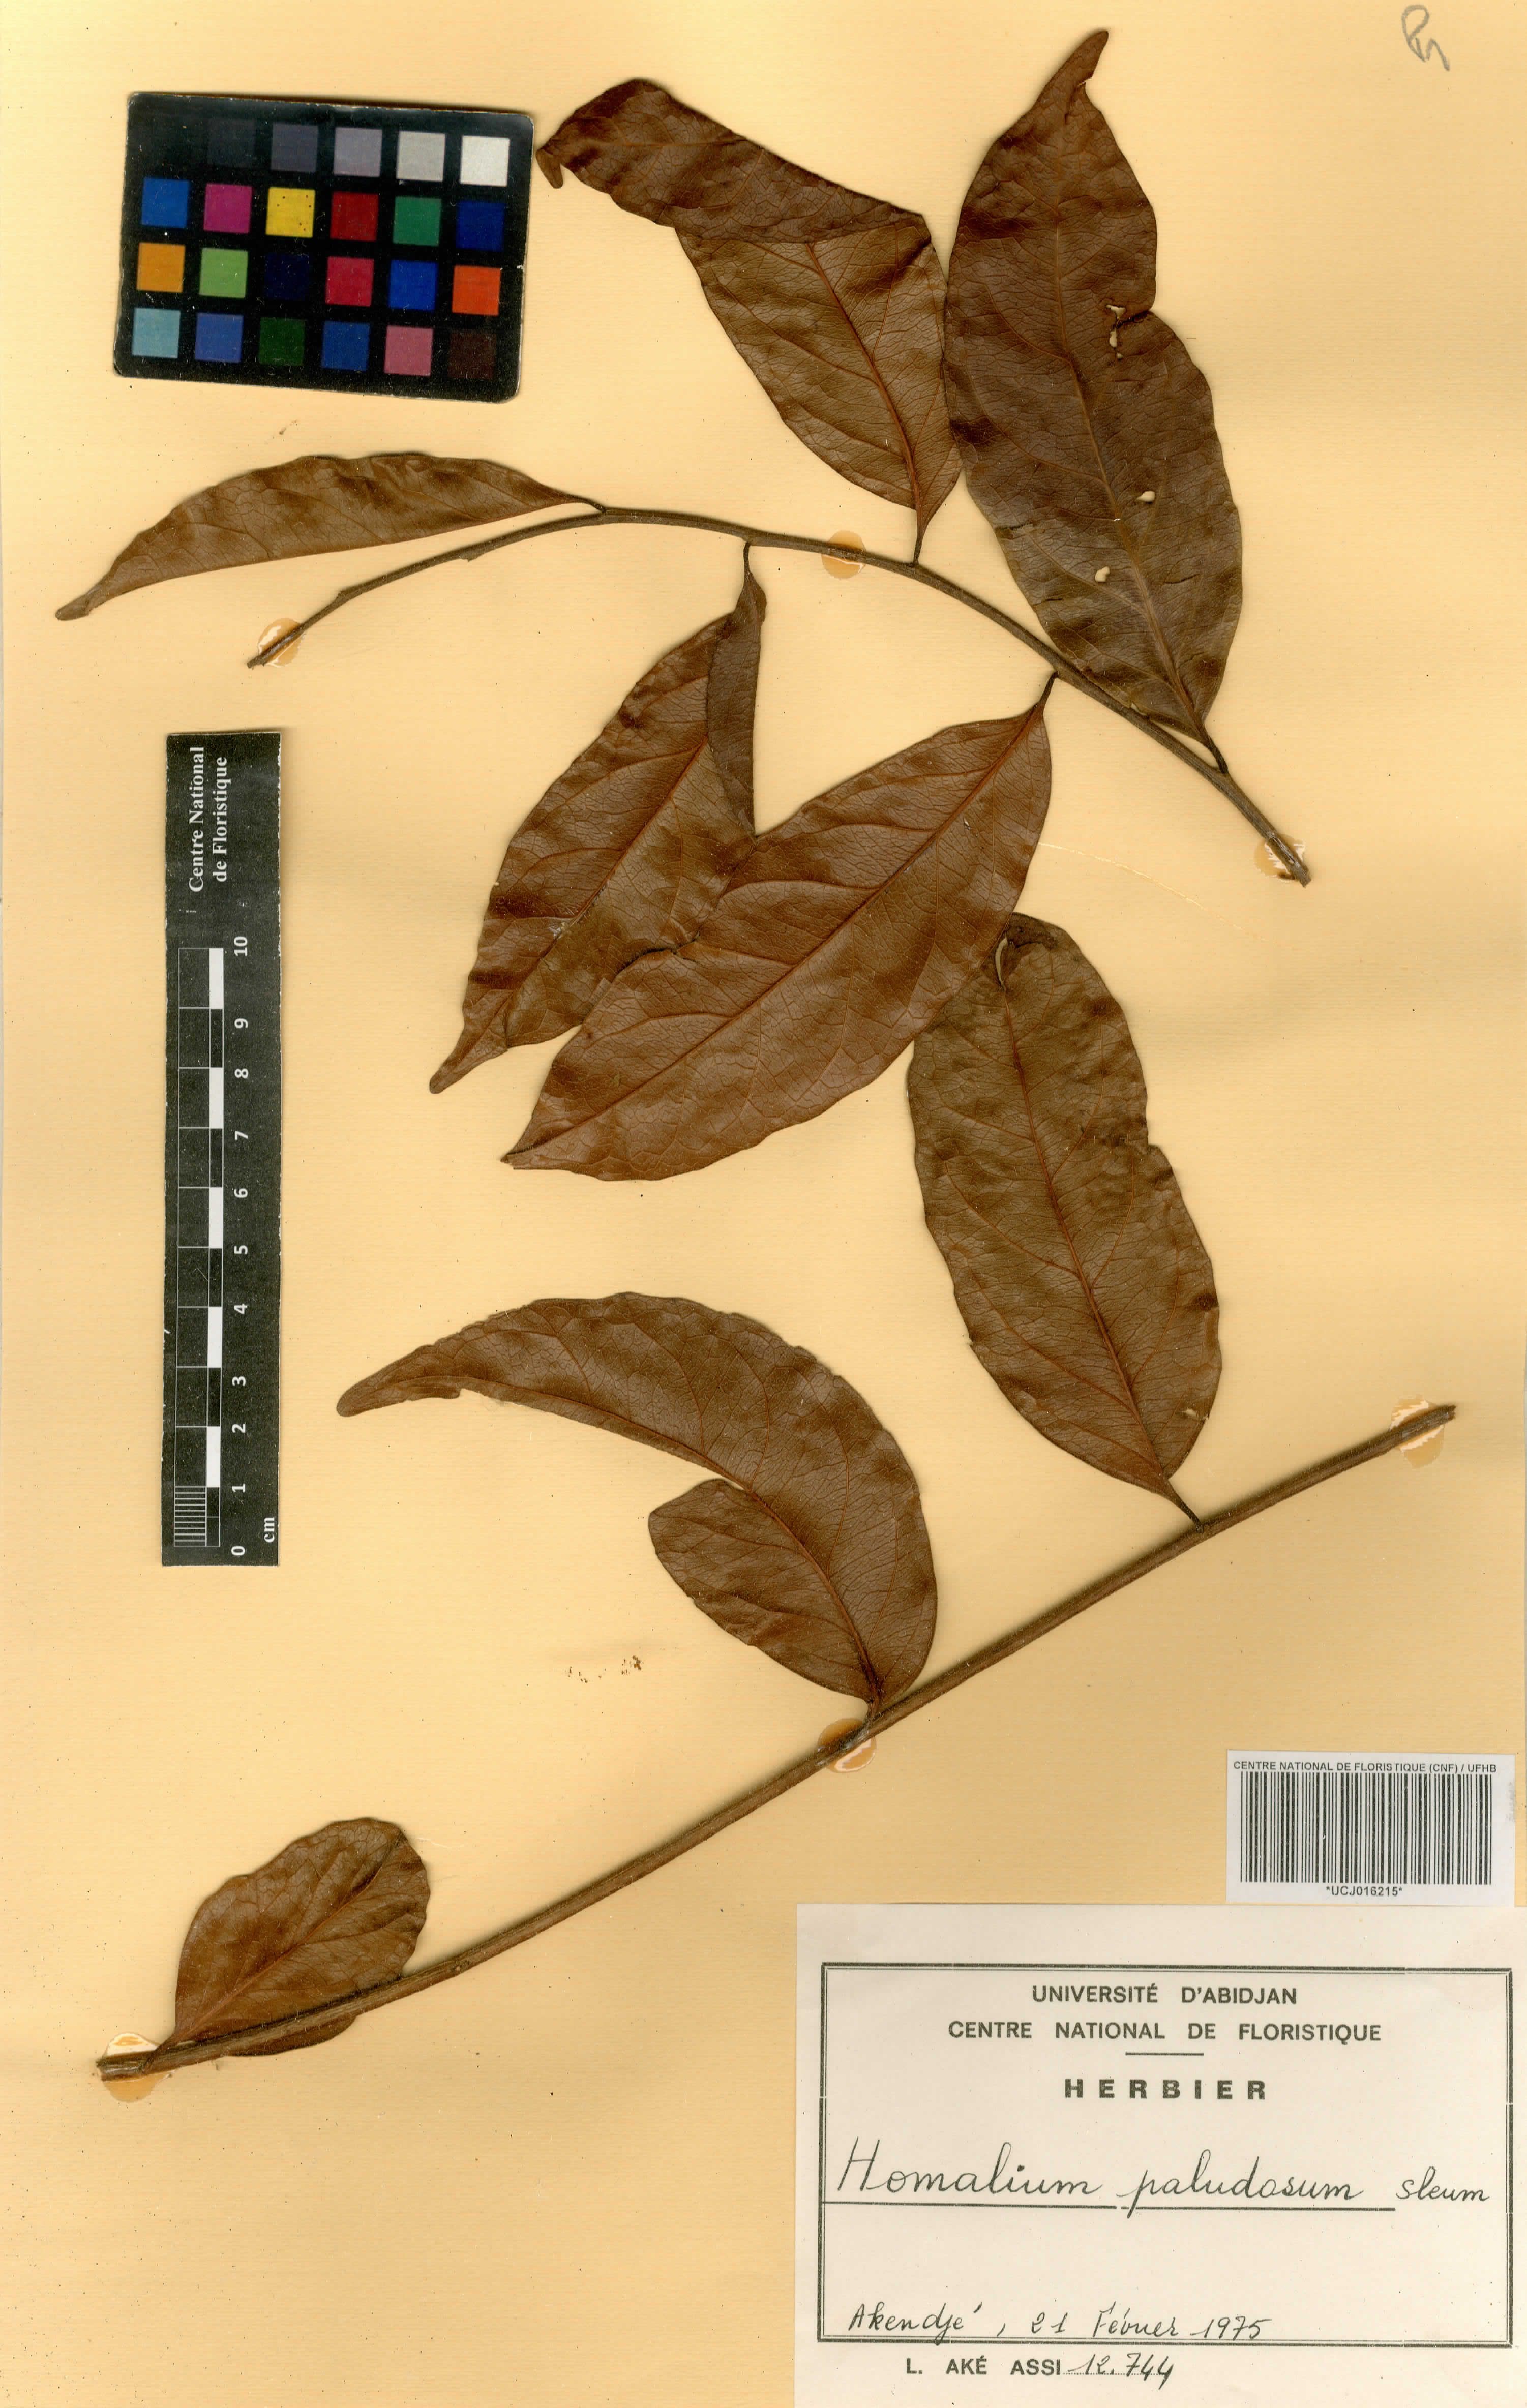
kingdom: Plantae
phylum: Tracheophyta
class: Magnoliopsida
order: Malpighiales
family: Salicaceae
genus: Homalium
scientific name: Homalium
